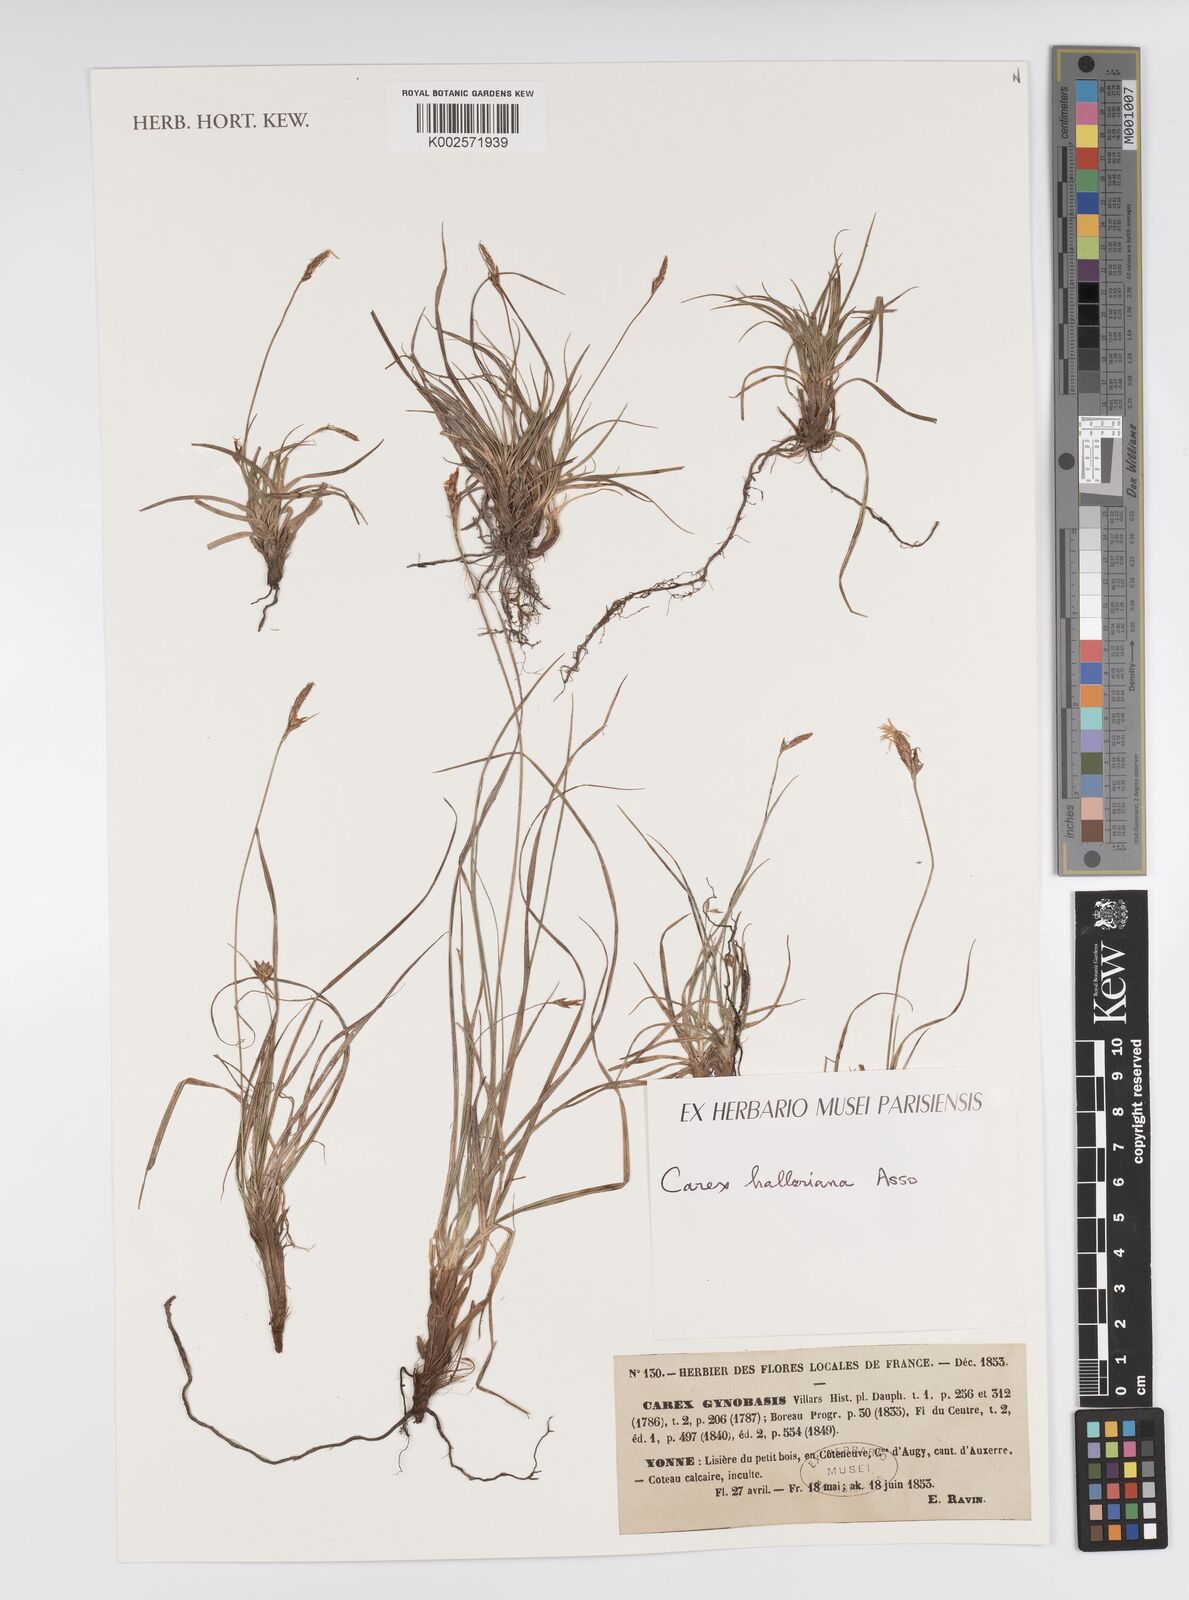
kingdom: Plantae
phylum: Tracheophyta
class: Liliopsida
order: Poales
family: Cyperaceae
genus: Carex
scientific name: Carex halleriana
